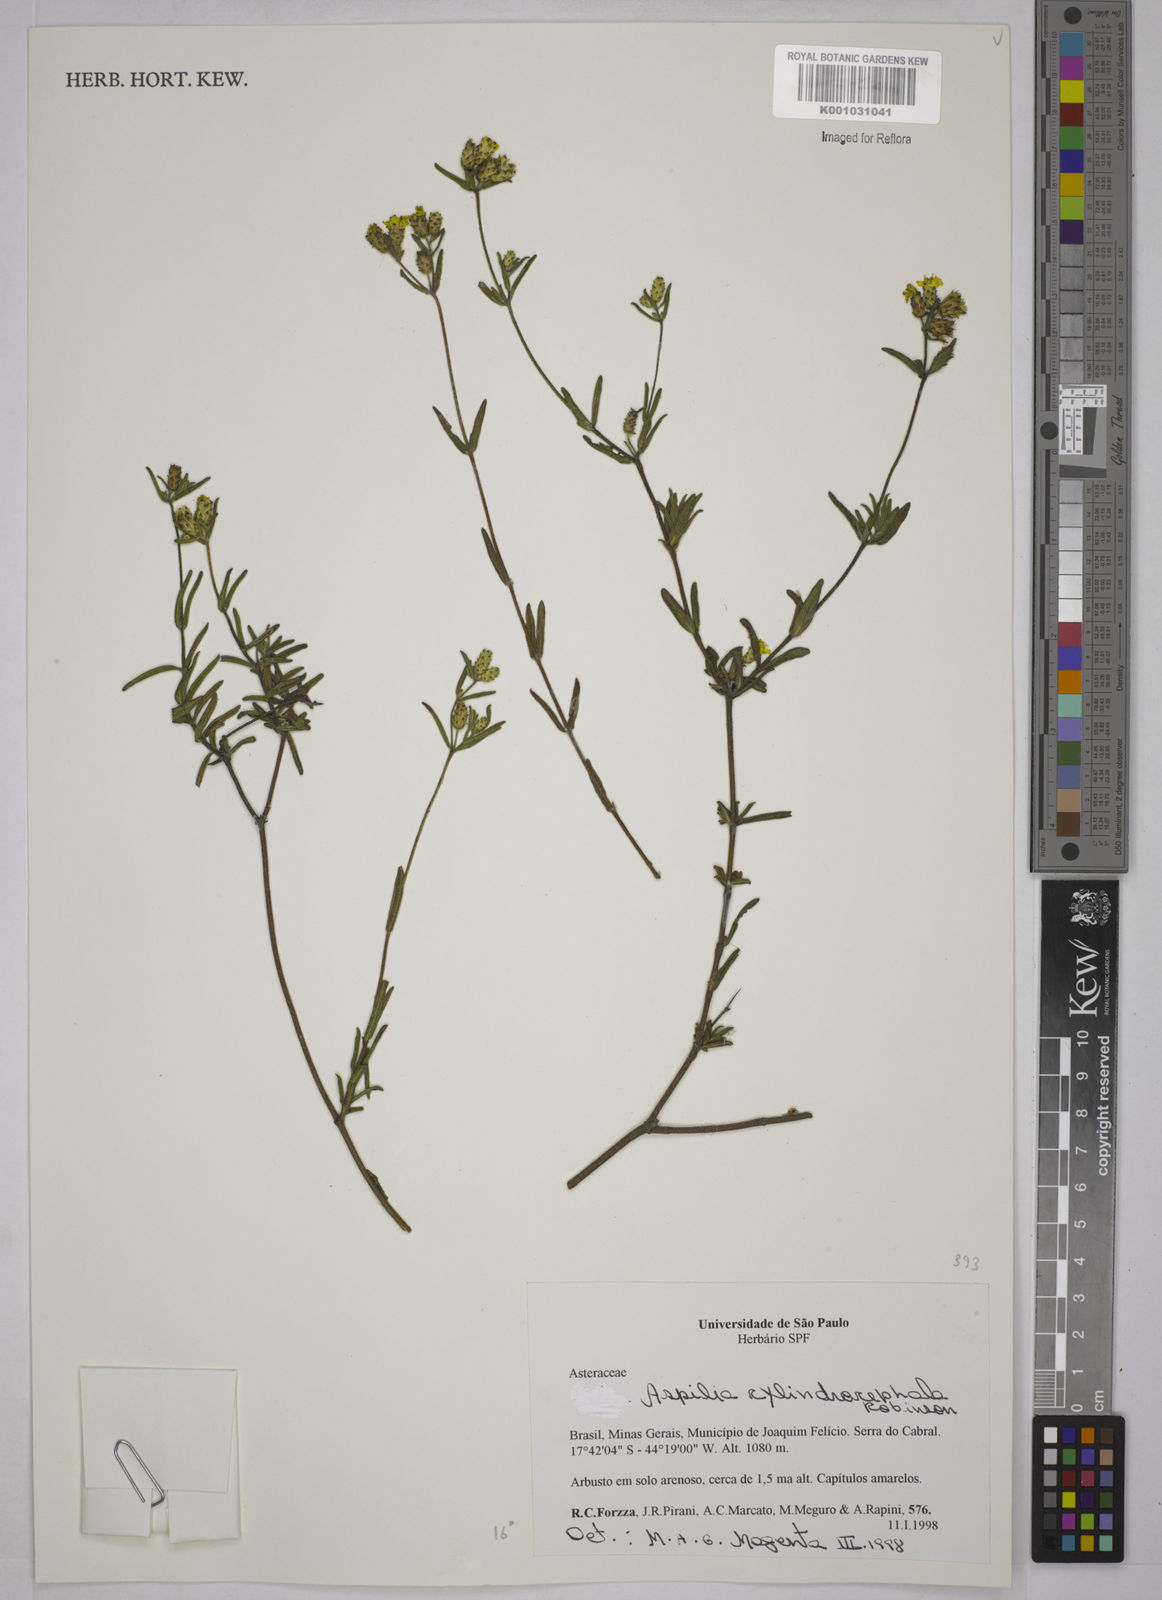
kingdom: Plantae
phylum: Tracheophyta
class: Magnoliopsida
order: Asterales
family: Asteraceae
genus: Wedelia
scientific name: Wedelia cylindrocephala
